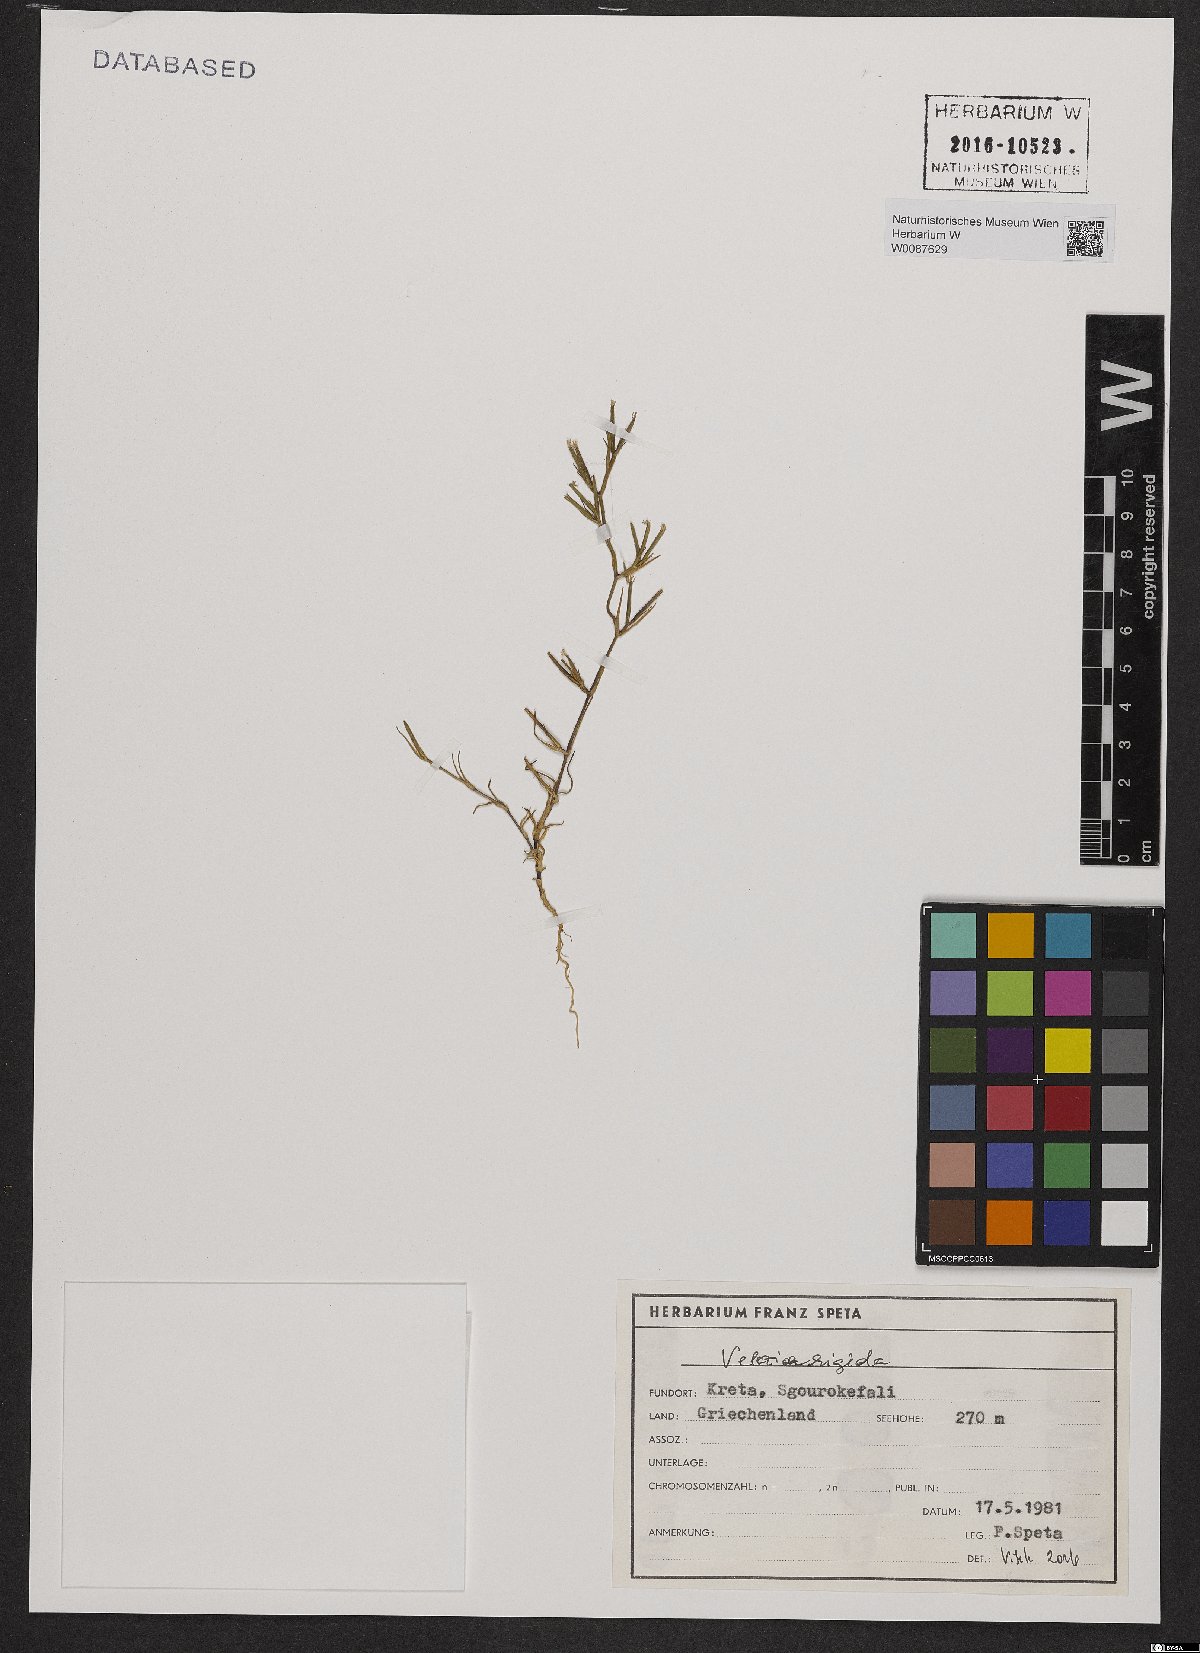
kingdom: Plantae
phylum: Tracheophyta
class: Magnoliopsida
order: Caryophyllales
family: Caryophyllaceae
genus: Dianthus
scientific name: Dianthus nudiflorus
